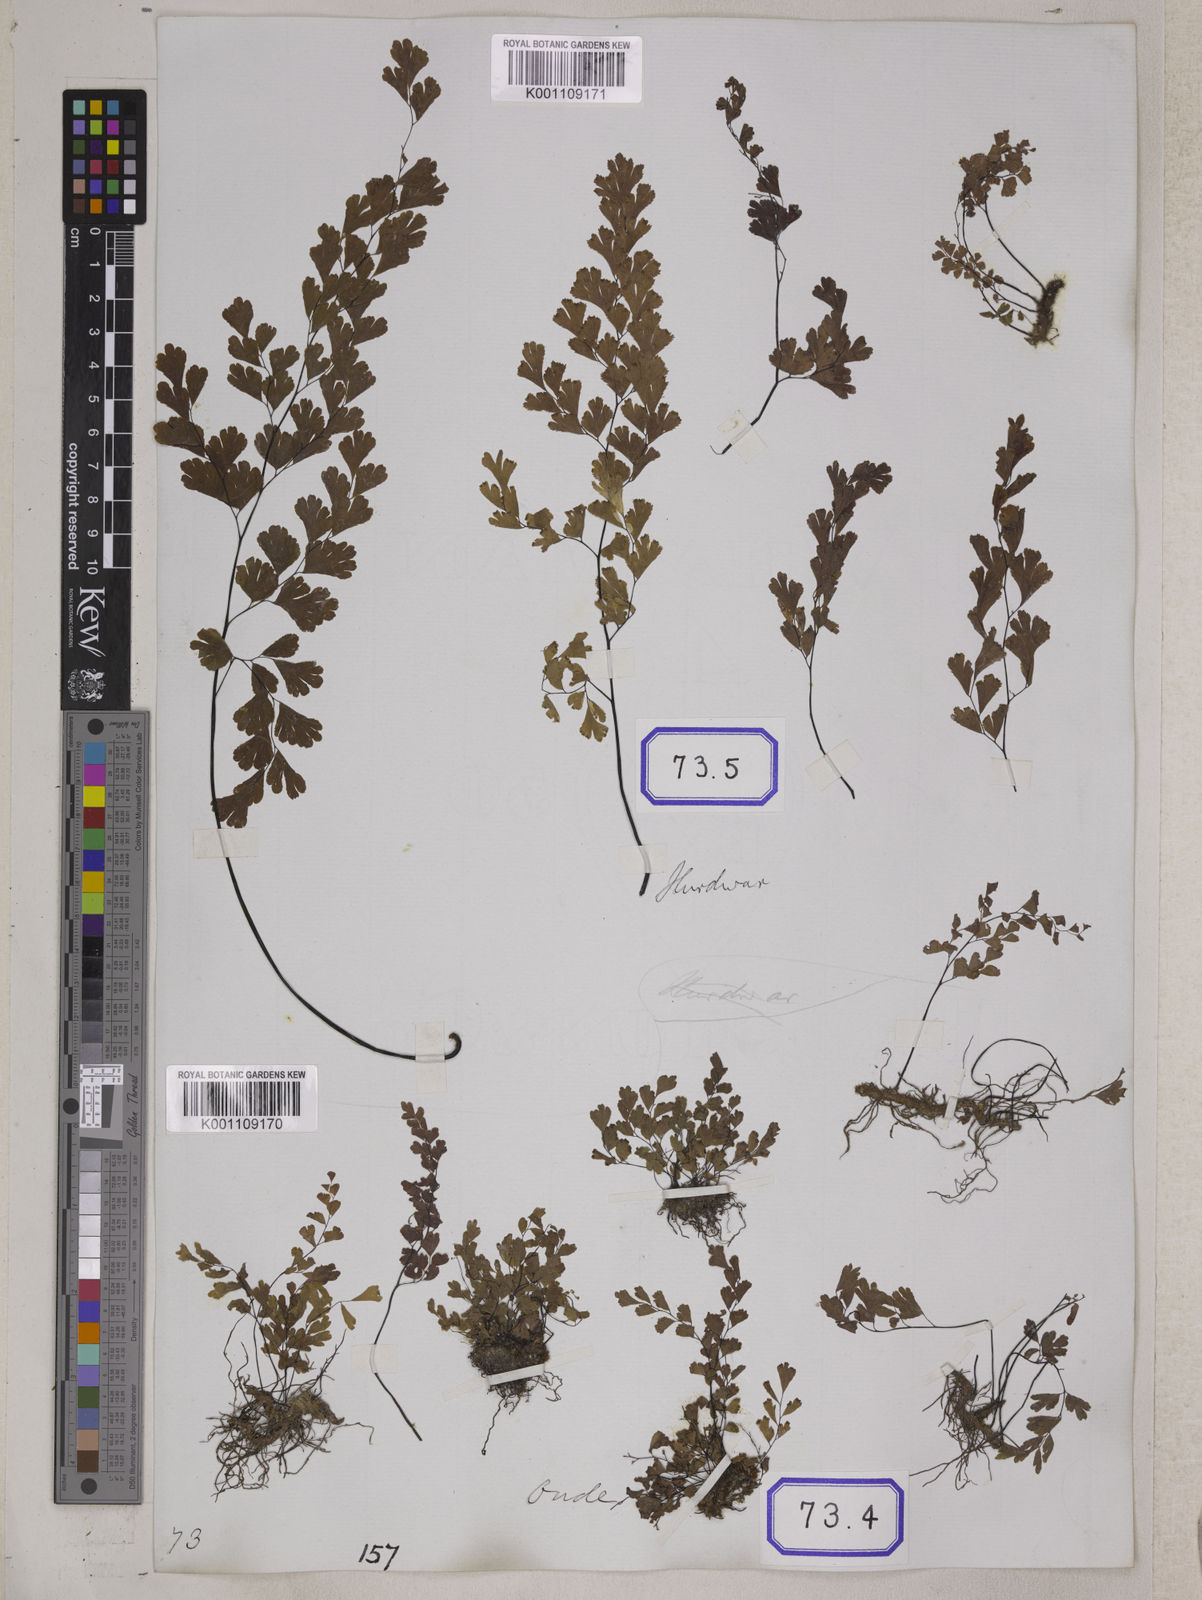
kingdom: Plantae
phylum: Tracheophyta
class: Polypodiopsida
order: Polypodiales
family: Pteridaceae
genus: Adiantum
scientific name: Adiantum
